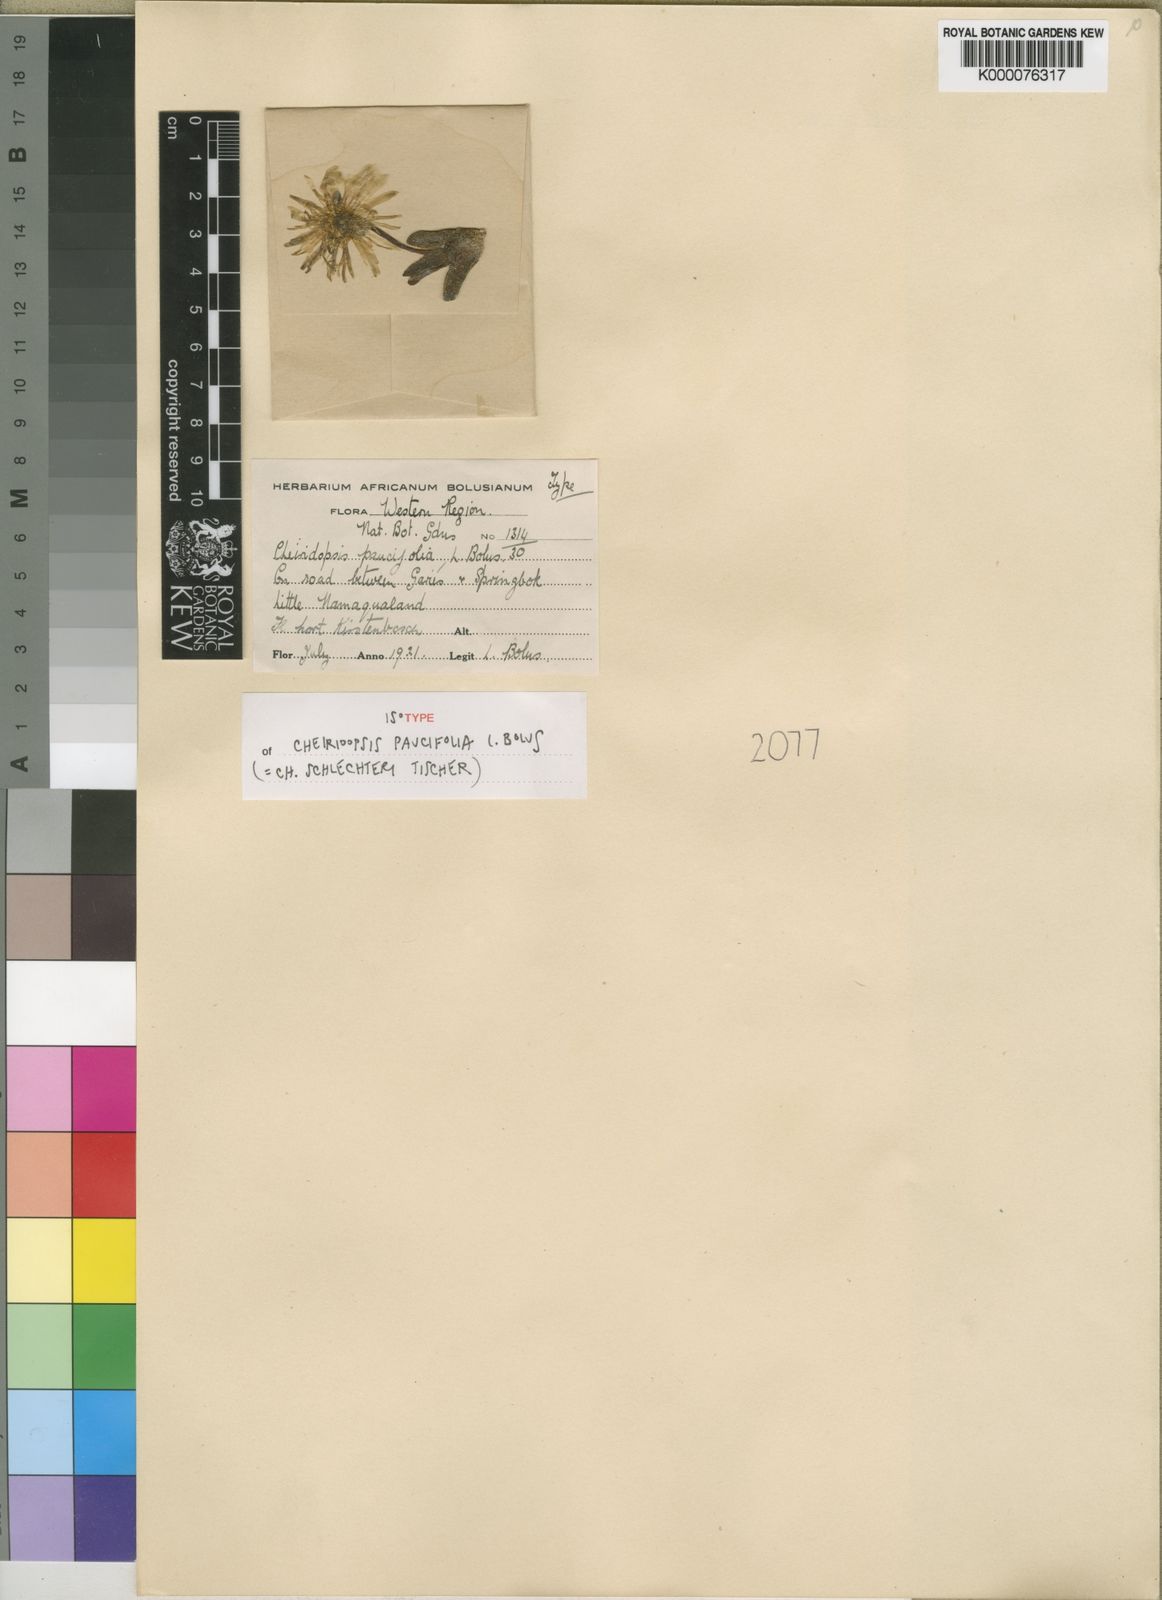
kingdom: Plantae
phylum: Tracheophyta
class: Magnoliopsida
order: Caryophyllales
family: Aizoaceae
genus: Cheiridopsis
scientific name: Cheiridopsis schlechteri
